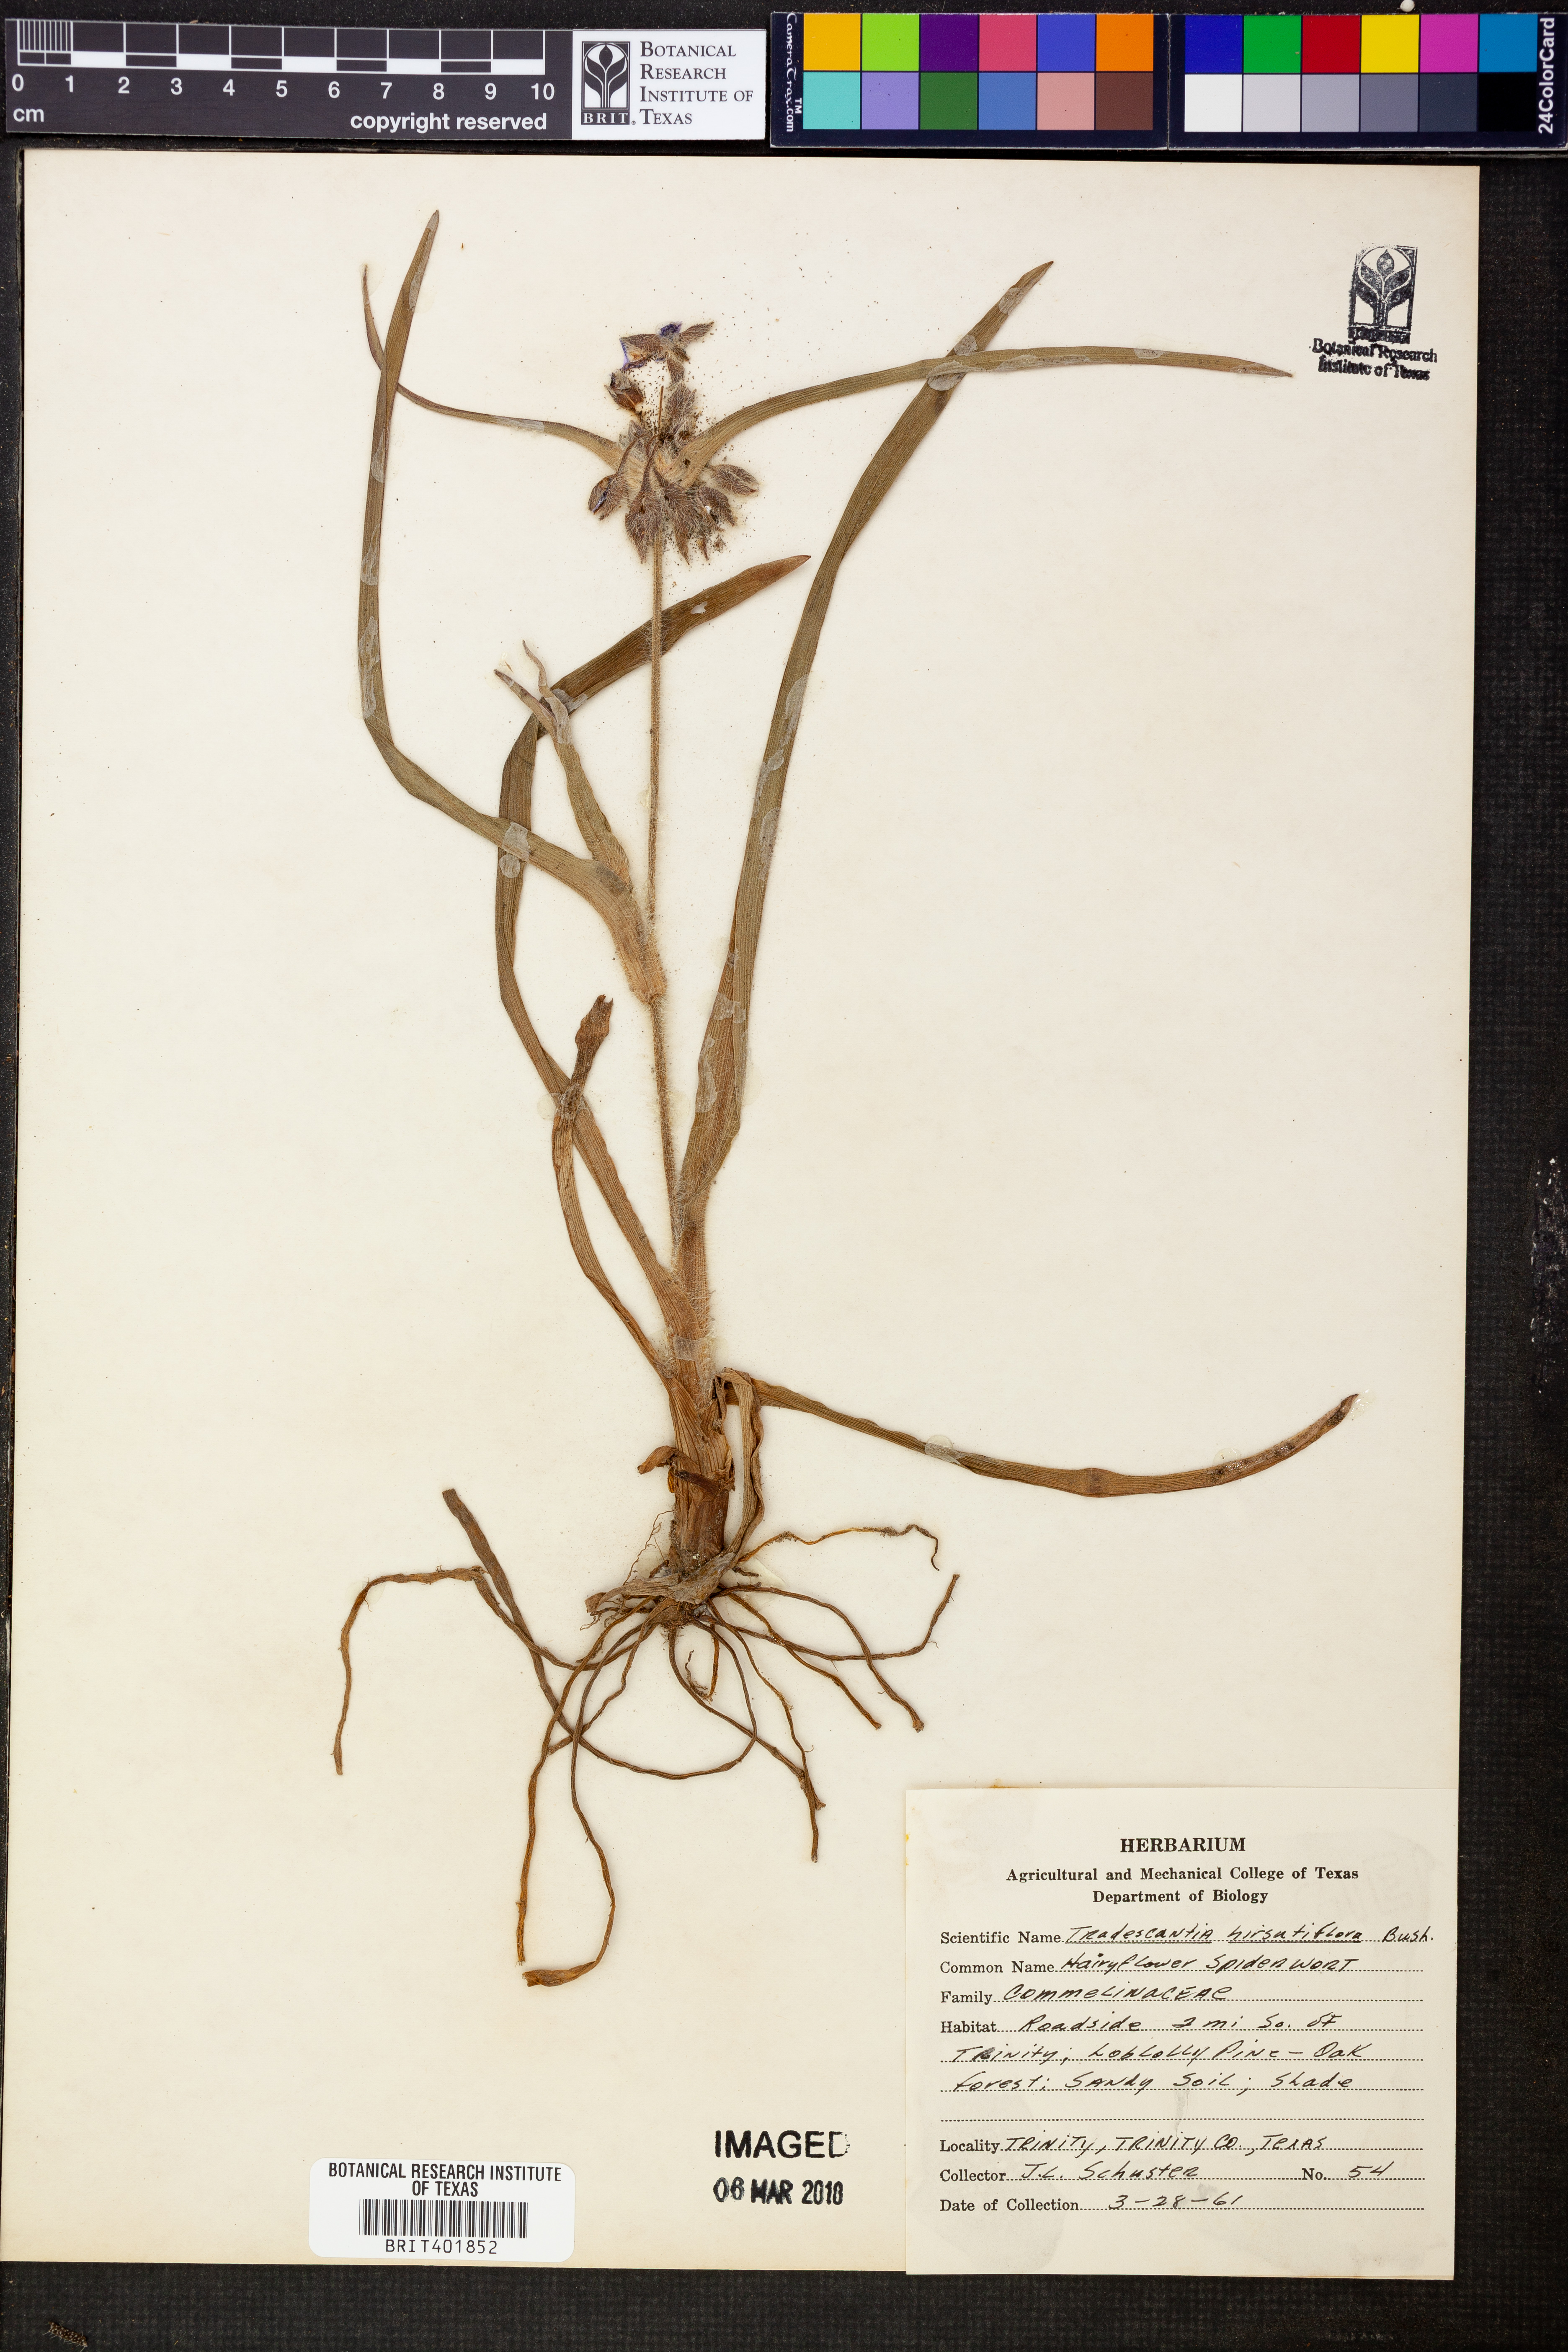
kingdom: Plantae
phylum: Tracheophyta
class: Liliopsida
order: Commelinales
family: Commelinaceae
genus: Tradescantia
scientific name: Tradescantia hirsutiflora
